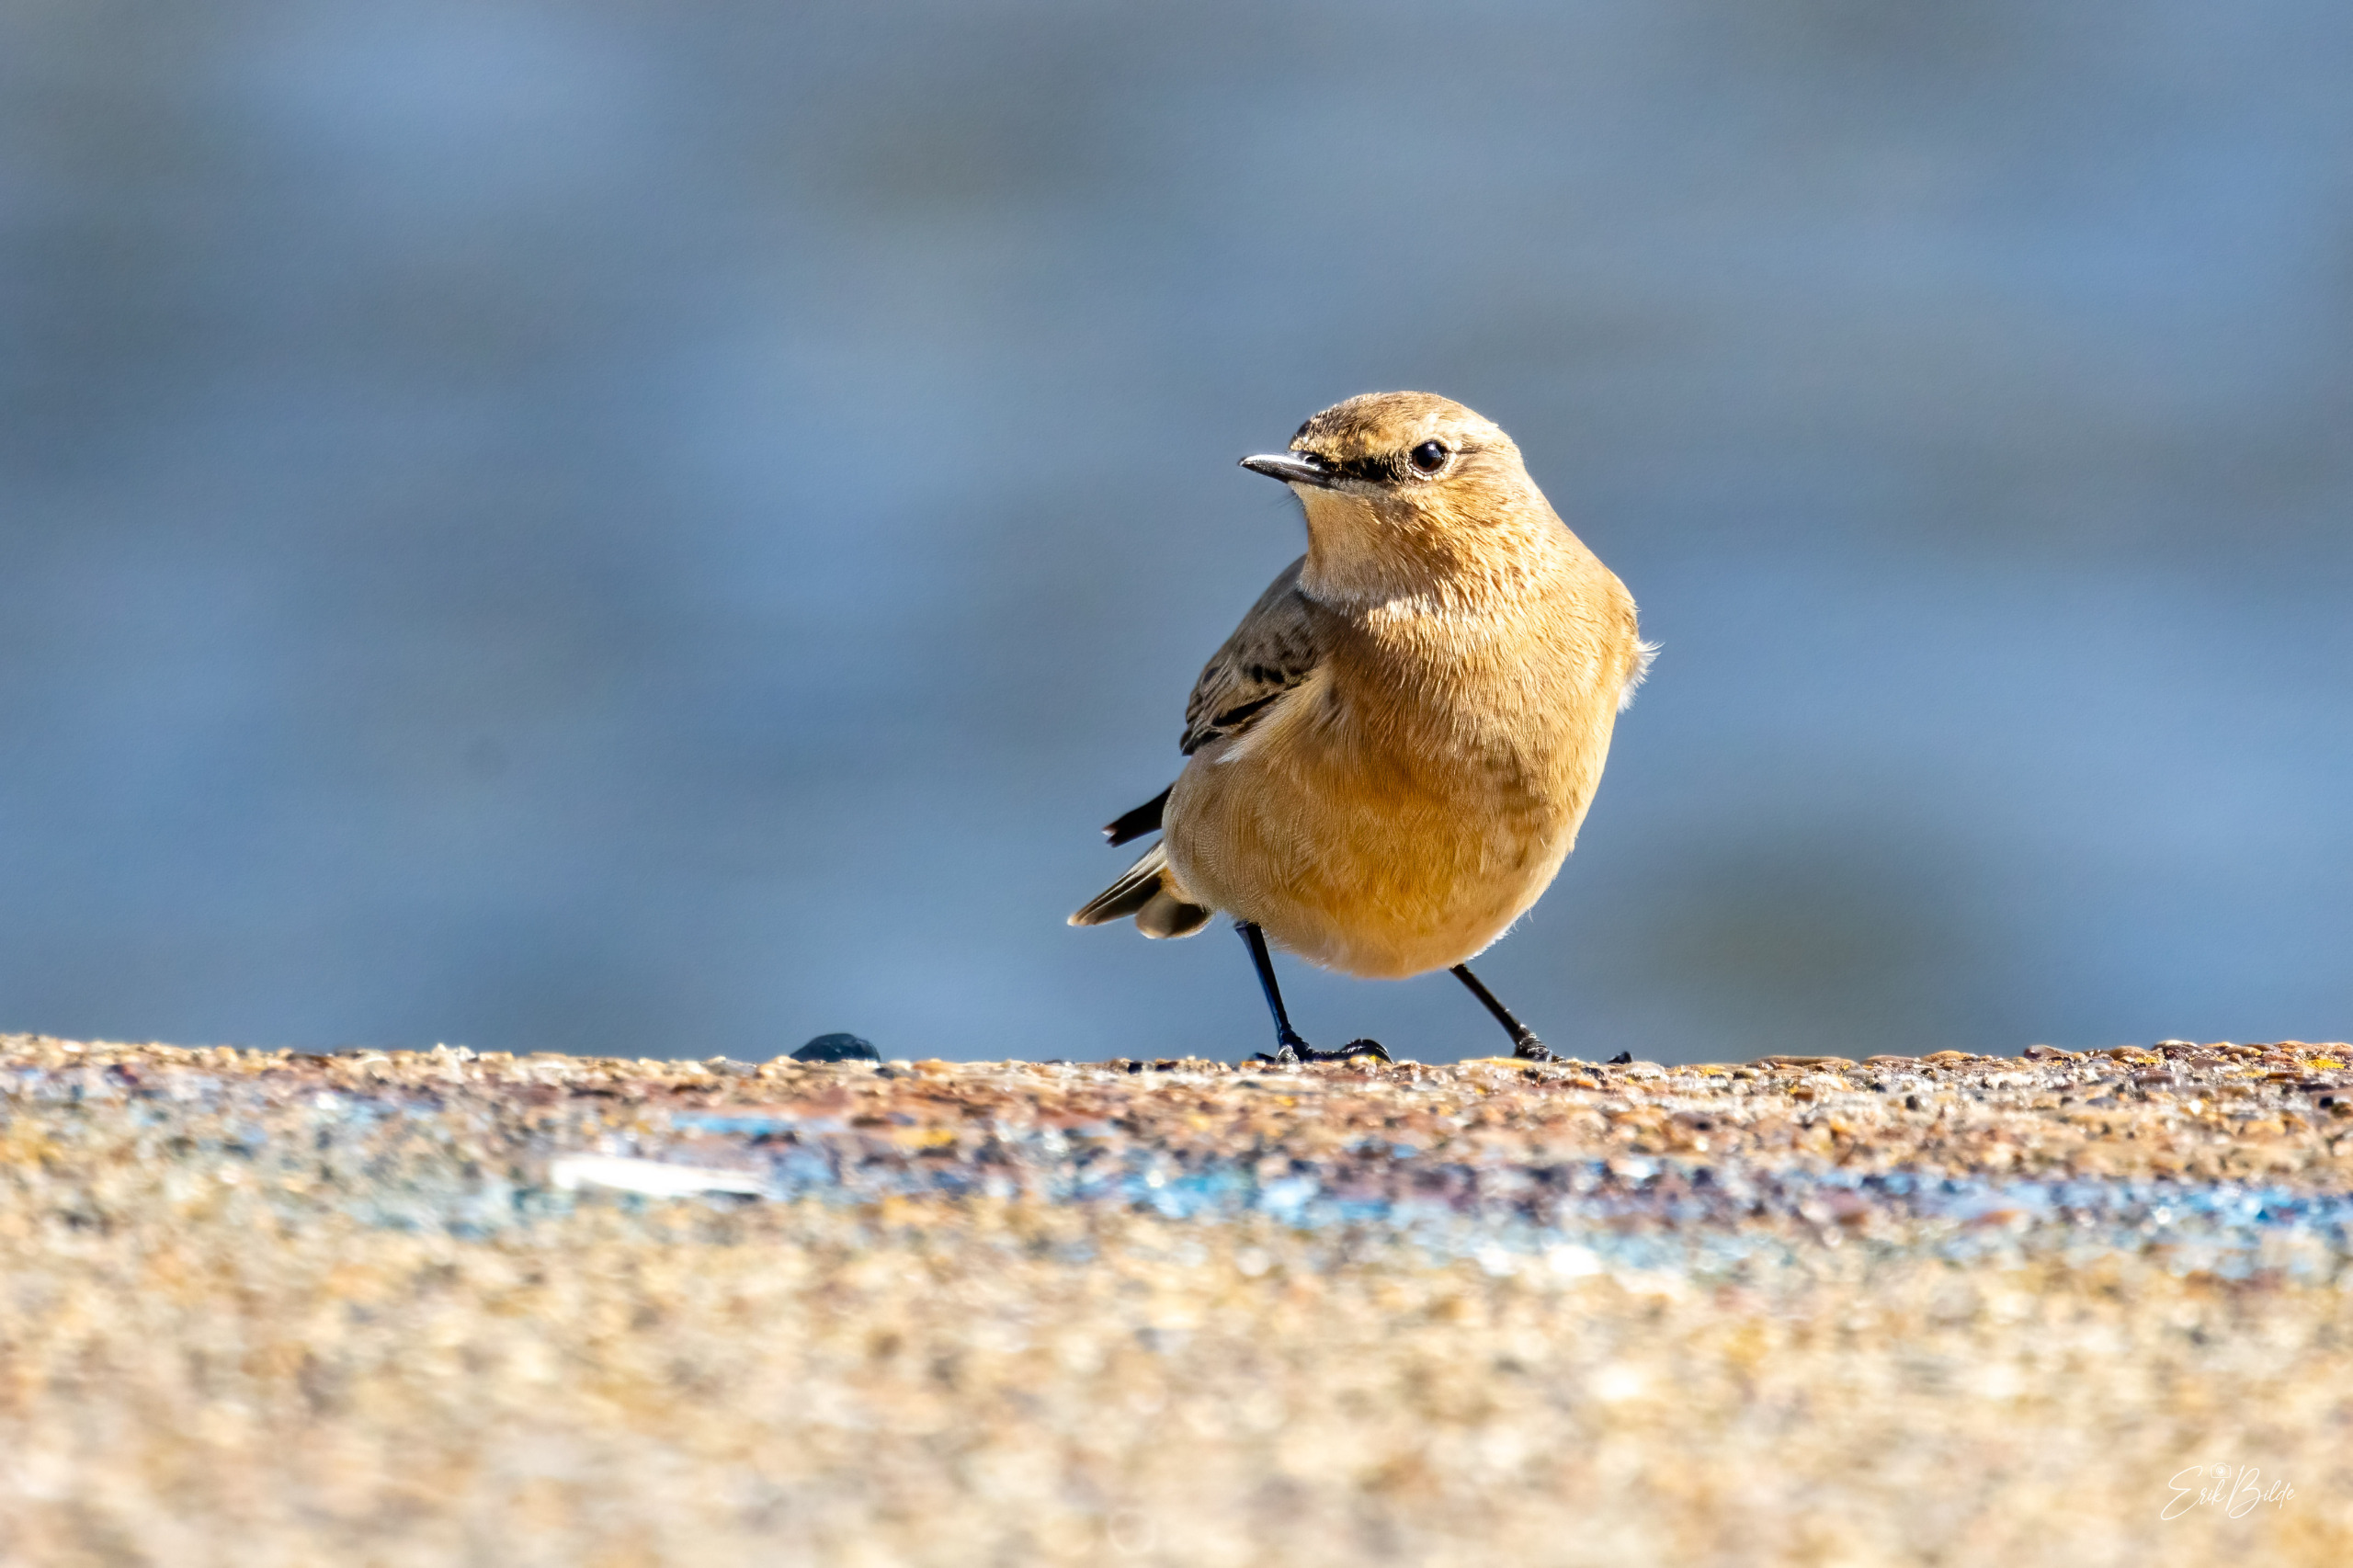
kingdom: Animalia
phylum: Chordata
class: Aves
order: Passeriformes
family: Muscicapidae
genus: Oenanthe
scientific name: Oenanthe oenanthe
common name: Stenpikker
